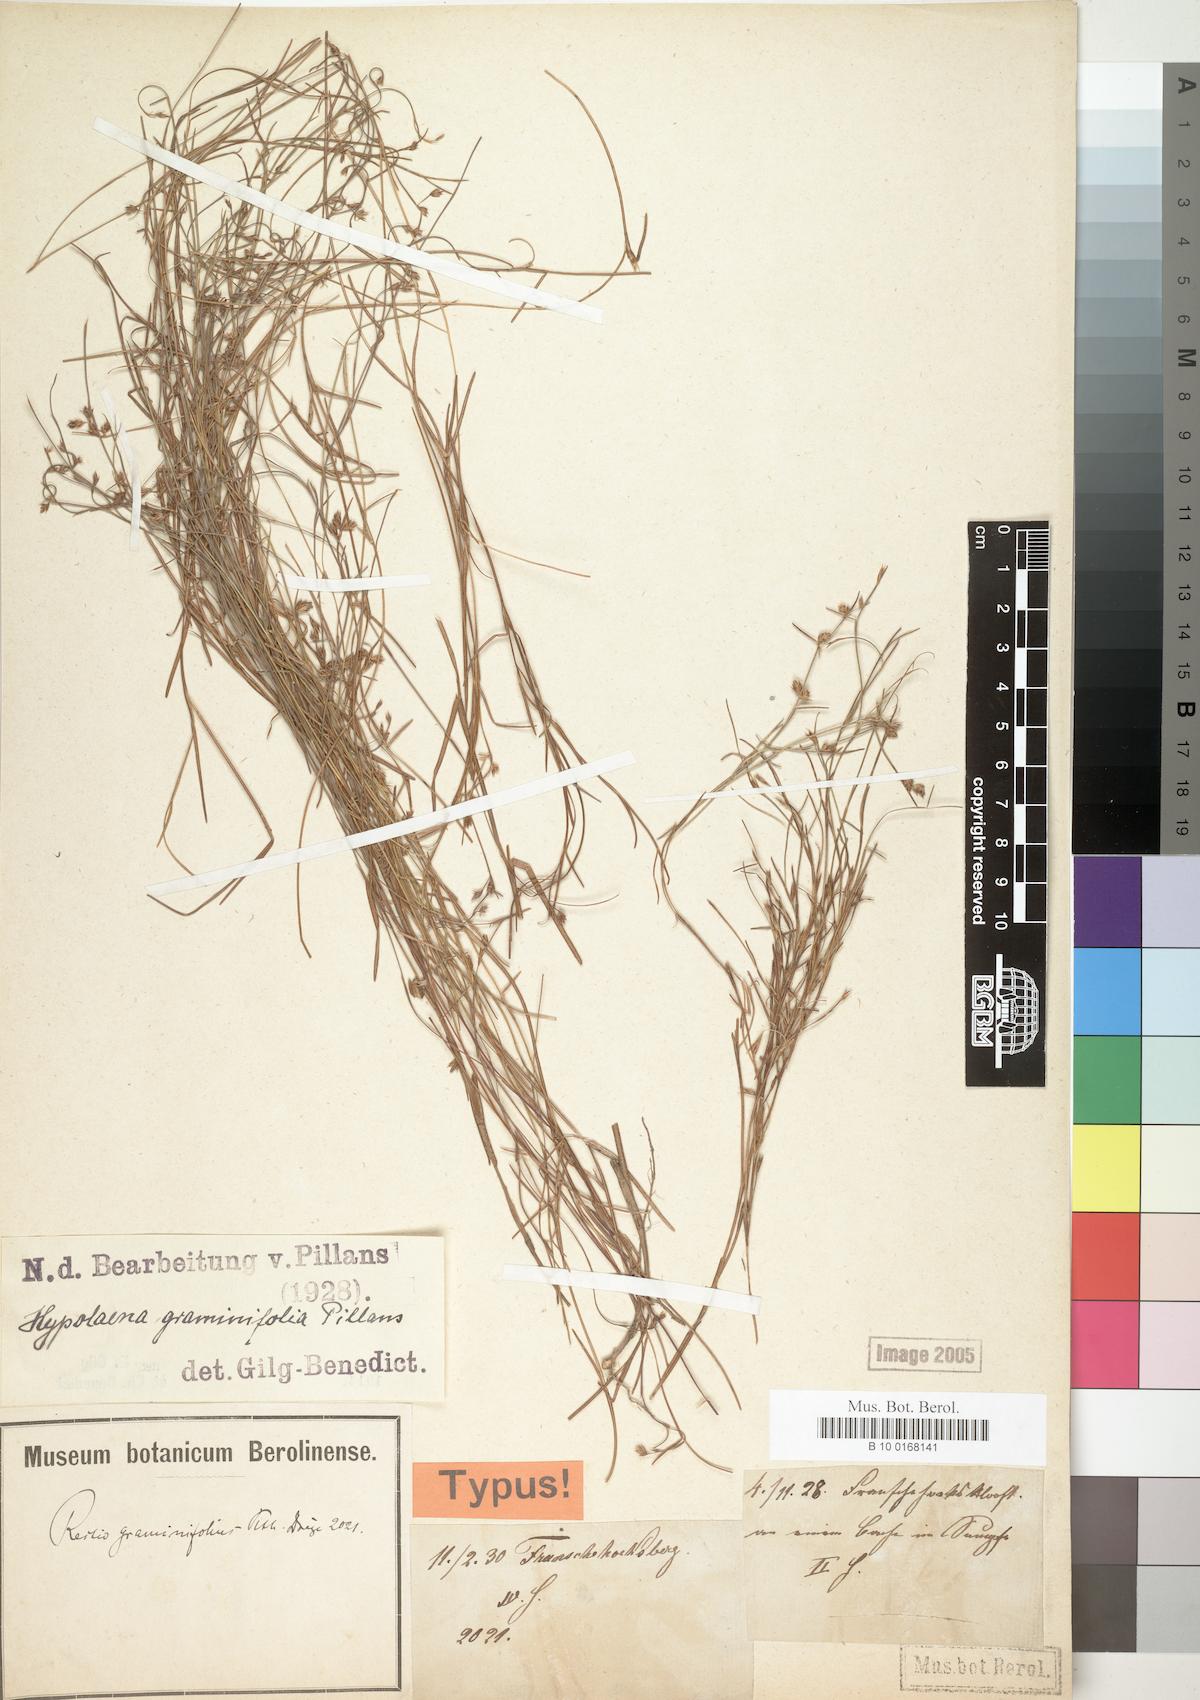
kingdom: Plantae
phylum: Tracheophyta
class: Liliopsida
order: Poales
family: Restionaceae
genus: Anthochortus
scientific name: Anthochortus graminifolius
